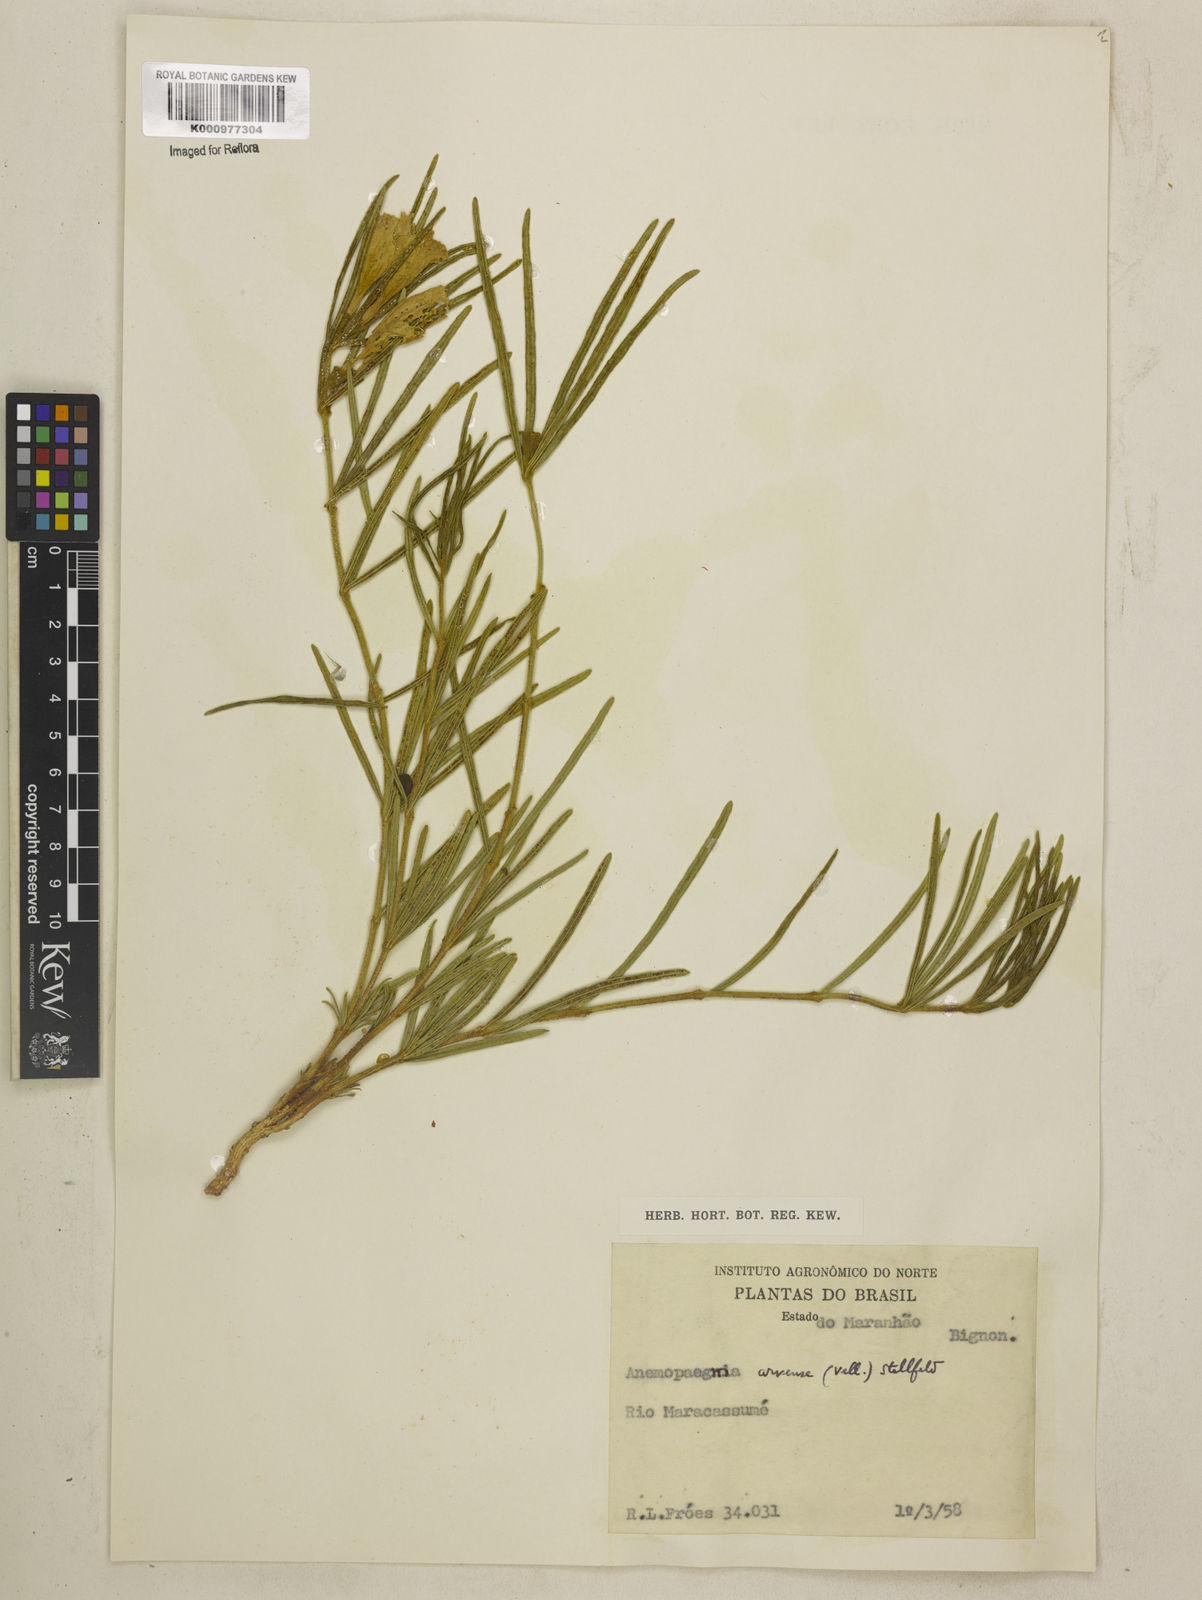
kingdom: Plantae
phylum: Tracheophyta
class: Magnoliopsida
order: Lamiales
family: Bignoniaceae
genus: Anemopaegma
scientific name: Anemopaegma arvense
